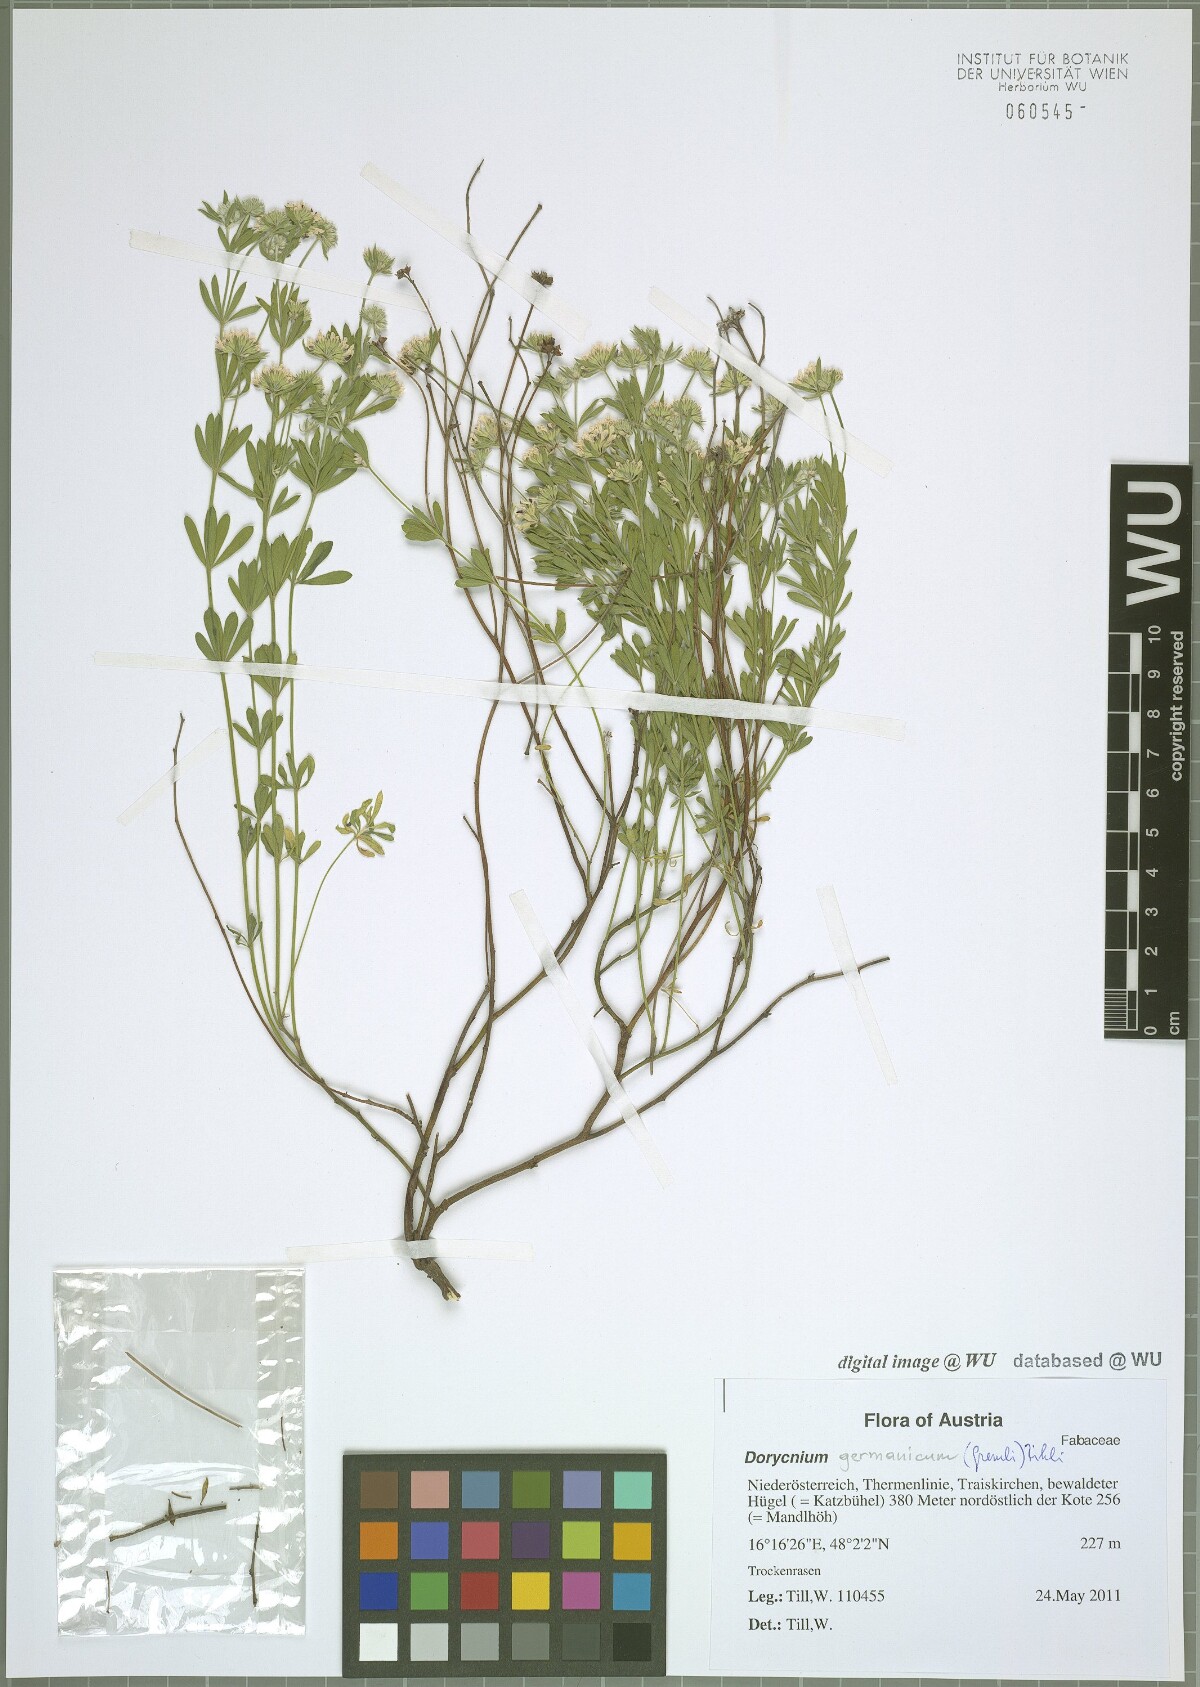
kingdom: Plantae
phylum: Tracheophyta
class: Magnoliopsida
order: Fabales
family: Fabaceae
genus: Lotus
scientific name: Lotus germanicus
